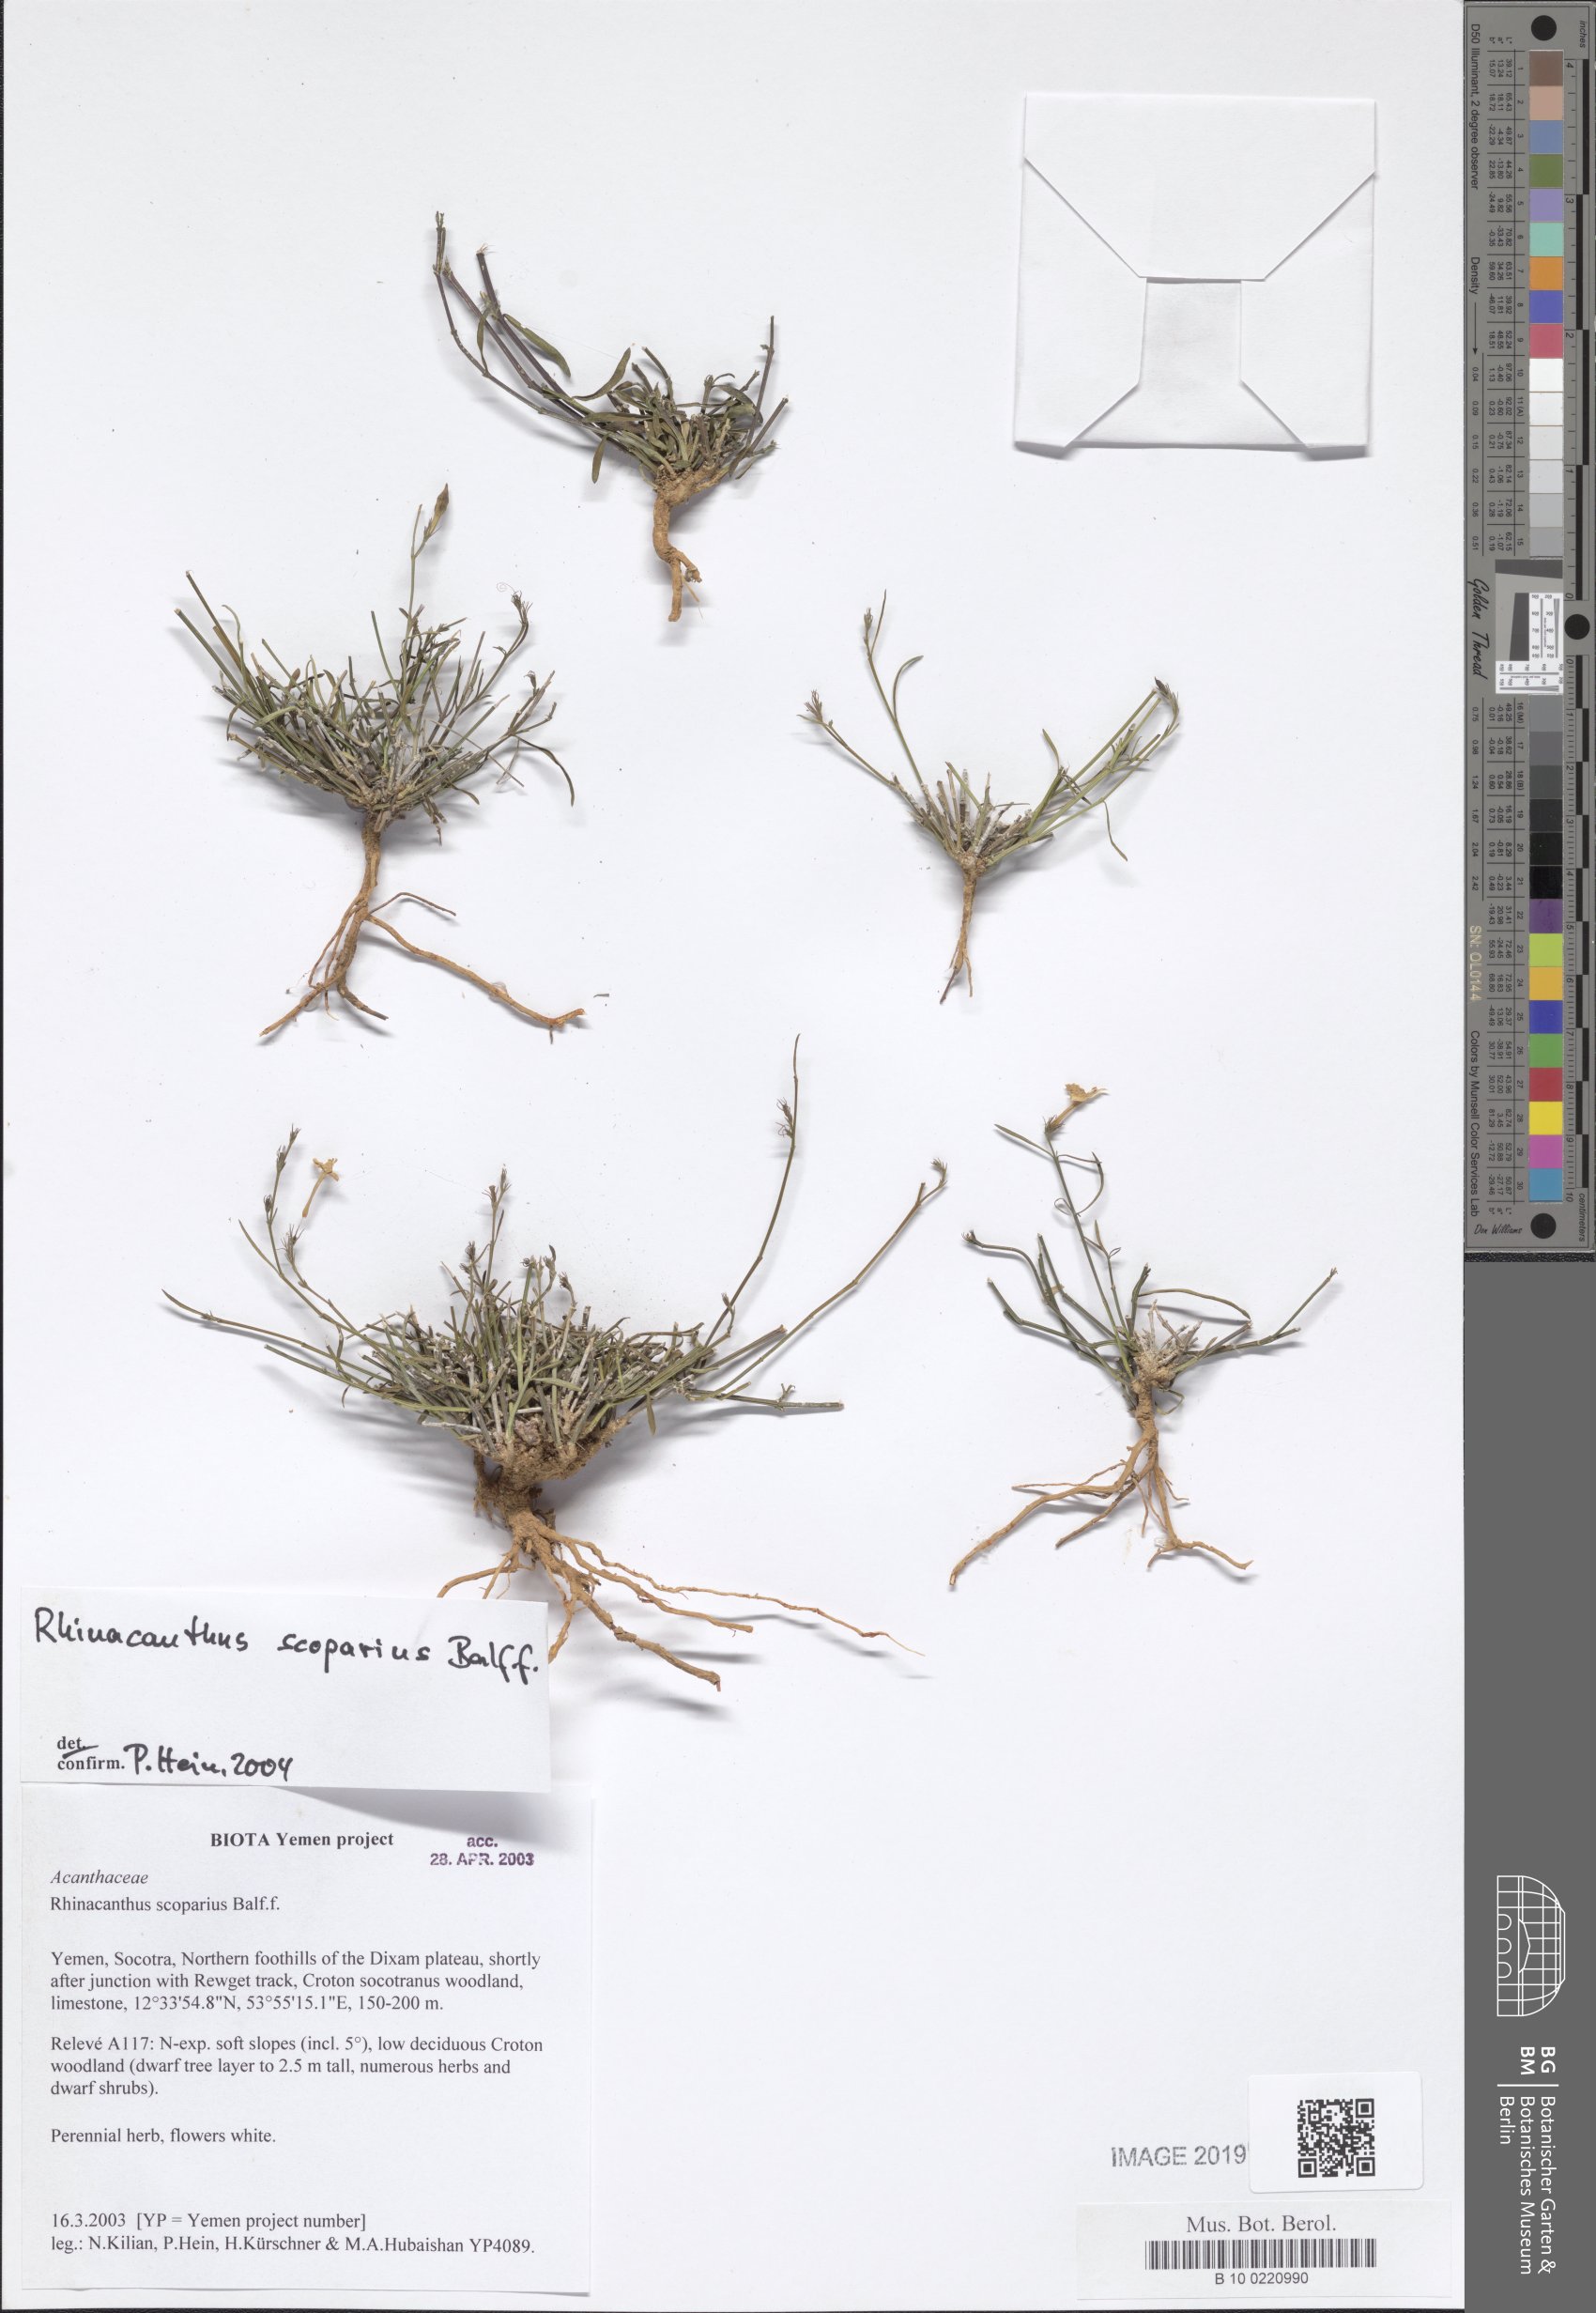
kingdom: Plantae
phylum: Tracheophyta
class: Magnoliopsida
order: Lamiales
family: Acanthaceae
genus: Rhinacanthus
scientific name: Rhinacanthus scoparius
